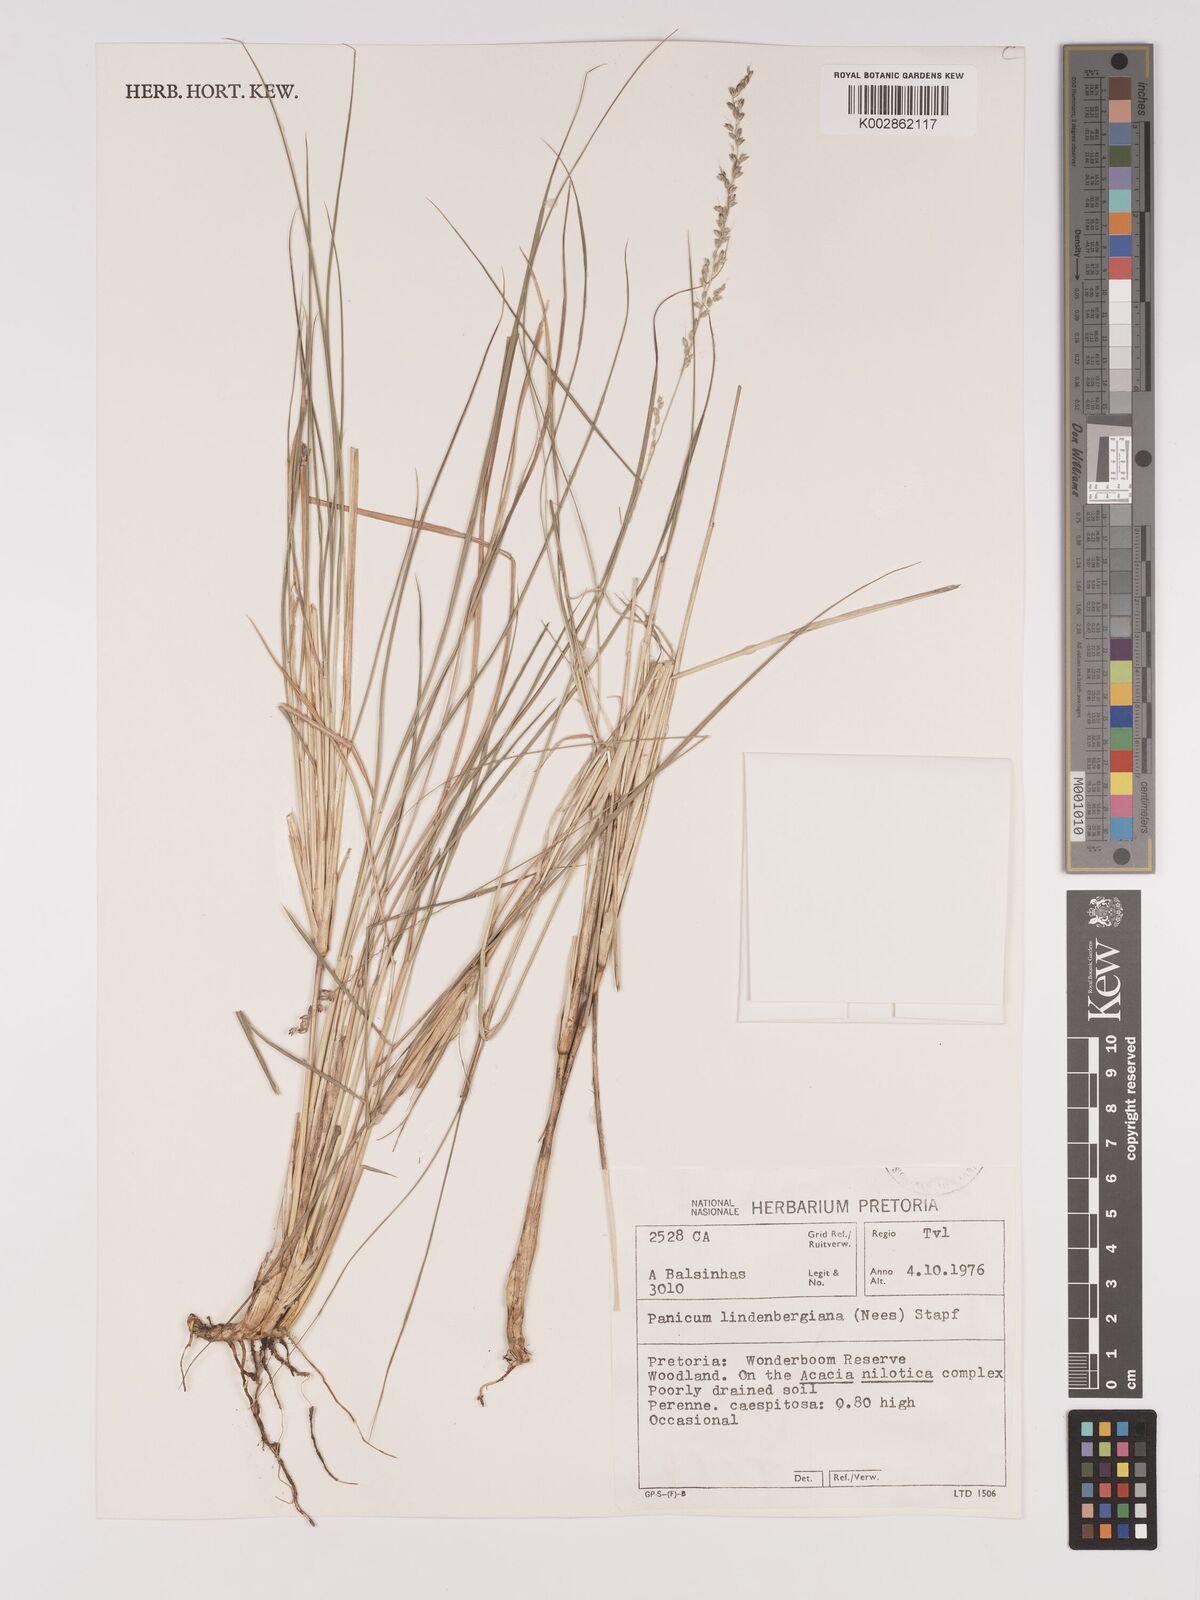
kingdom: Plantae
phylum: Tracheophyta
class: Liliopsida
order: Poales
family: Poaceae
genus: Setaria
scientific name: Setaria lindenbergiana
